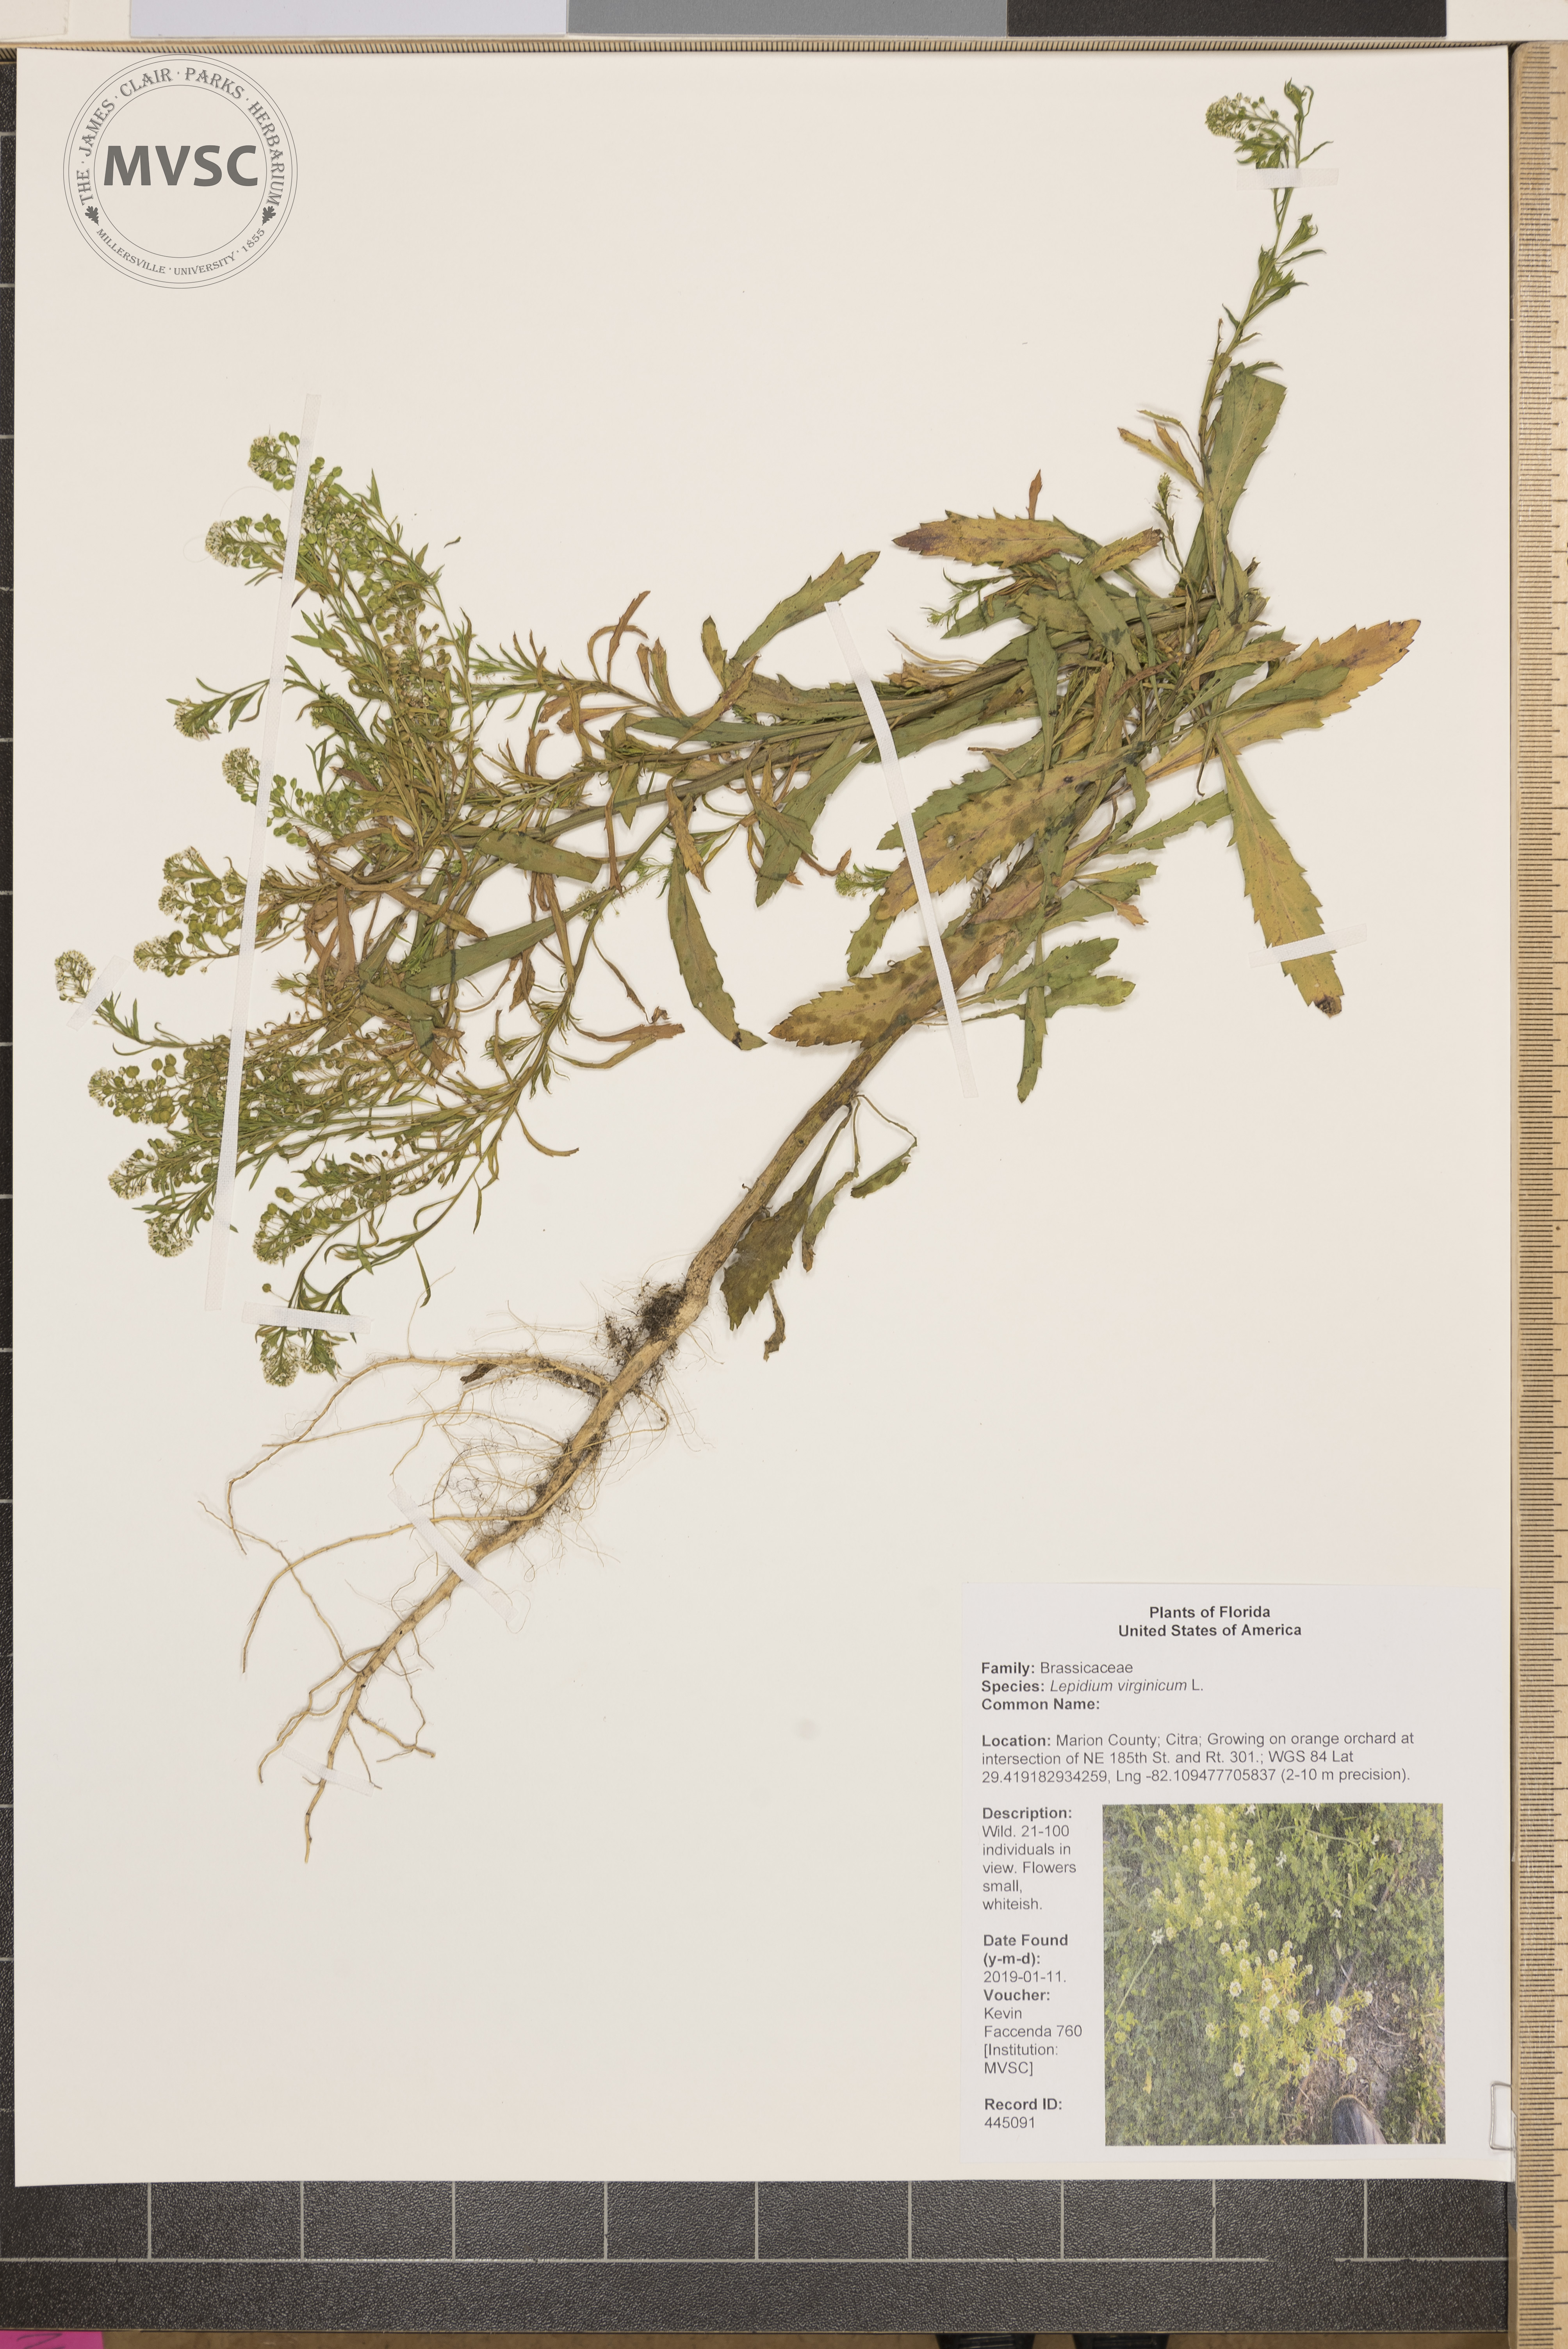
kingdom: Plantae
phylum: Tracheophyta
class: Magnoliopsida
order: Brassicales
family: Brassicaceae
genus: Lepidium
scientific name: Lepidium virginicum
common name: Least pepperwort
